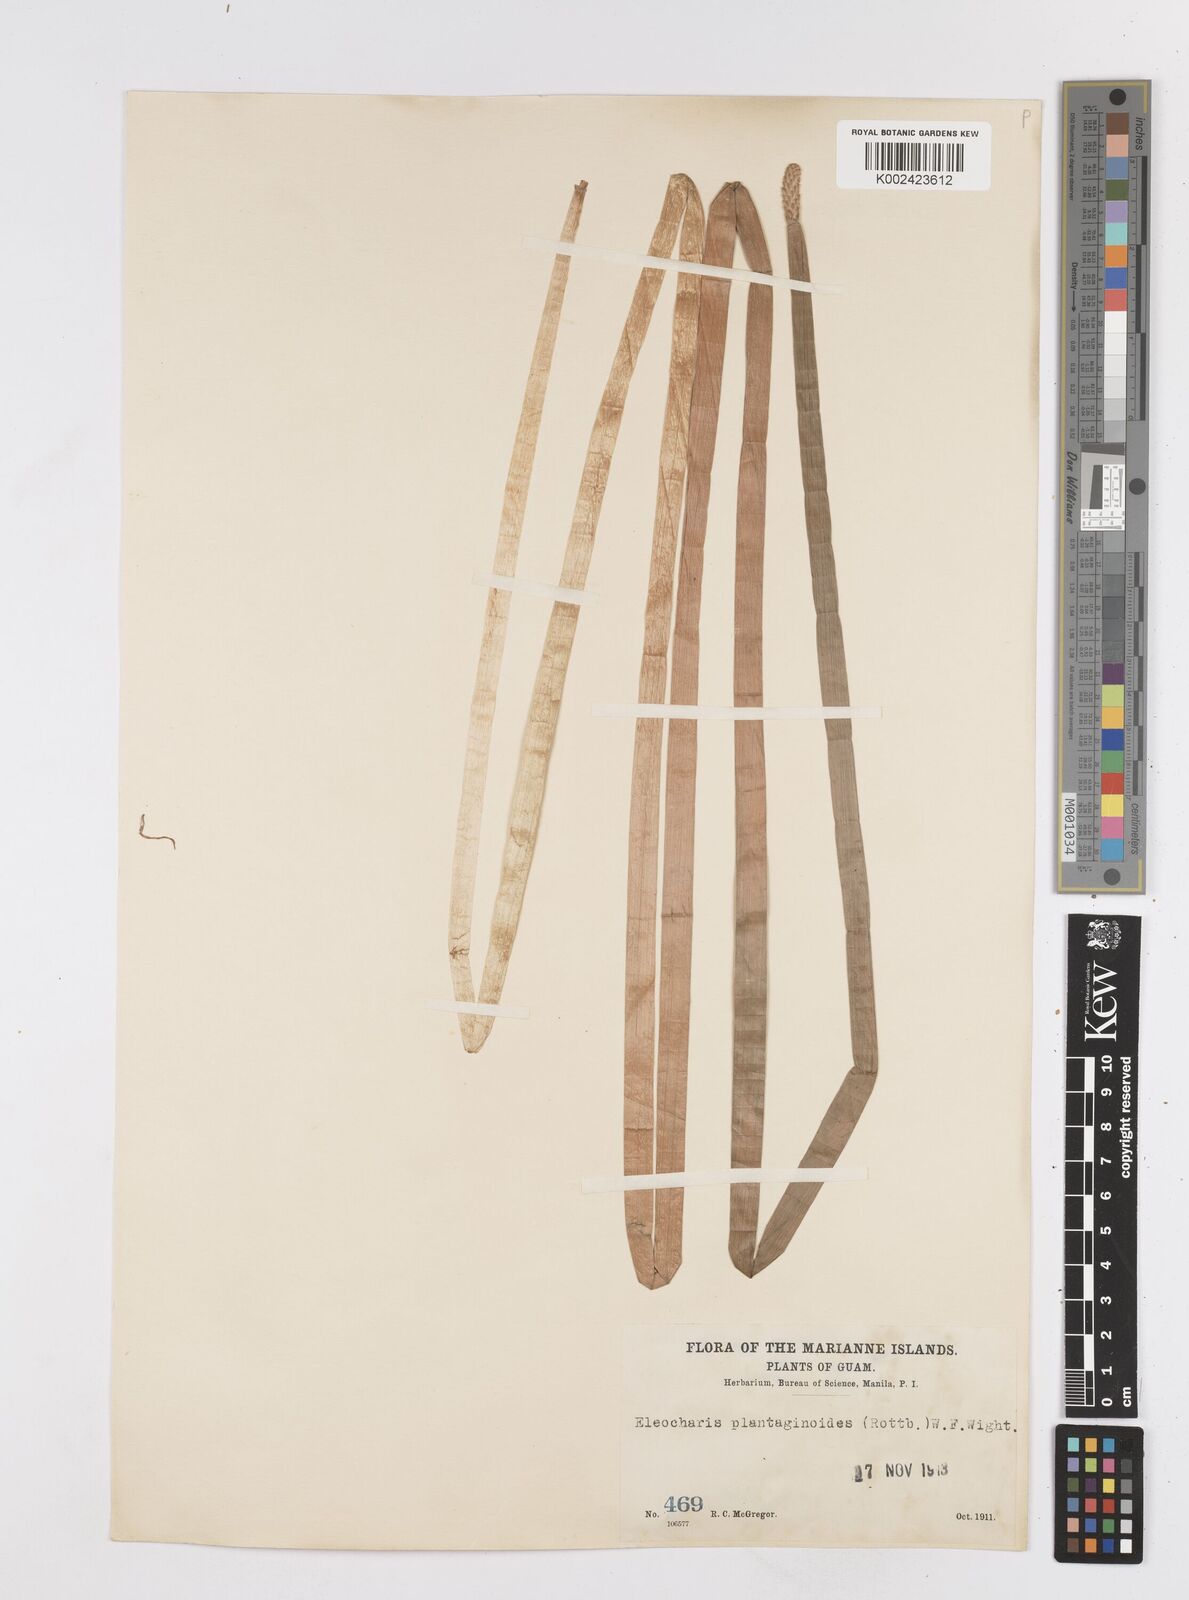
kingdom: Plantae
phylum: Tracheophyta
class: Liliopsida
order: Poales
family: Cyperaceae
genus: Eleocharis
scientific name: Eleocharis dulcis
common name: Chinese water chestnut
